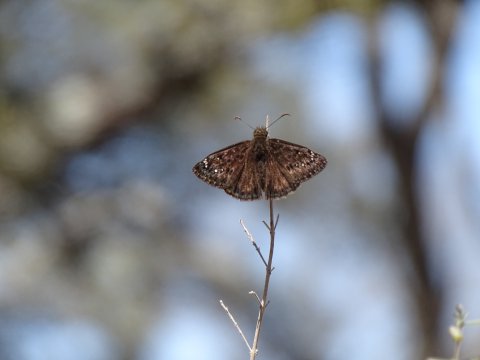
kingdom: Animalia
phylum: Arthropoda
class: Insecta
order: Lepidoptera
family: Hesperiidae
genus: Gesta
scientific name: Gesta
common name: Juvenal's Duskywing
